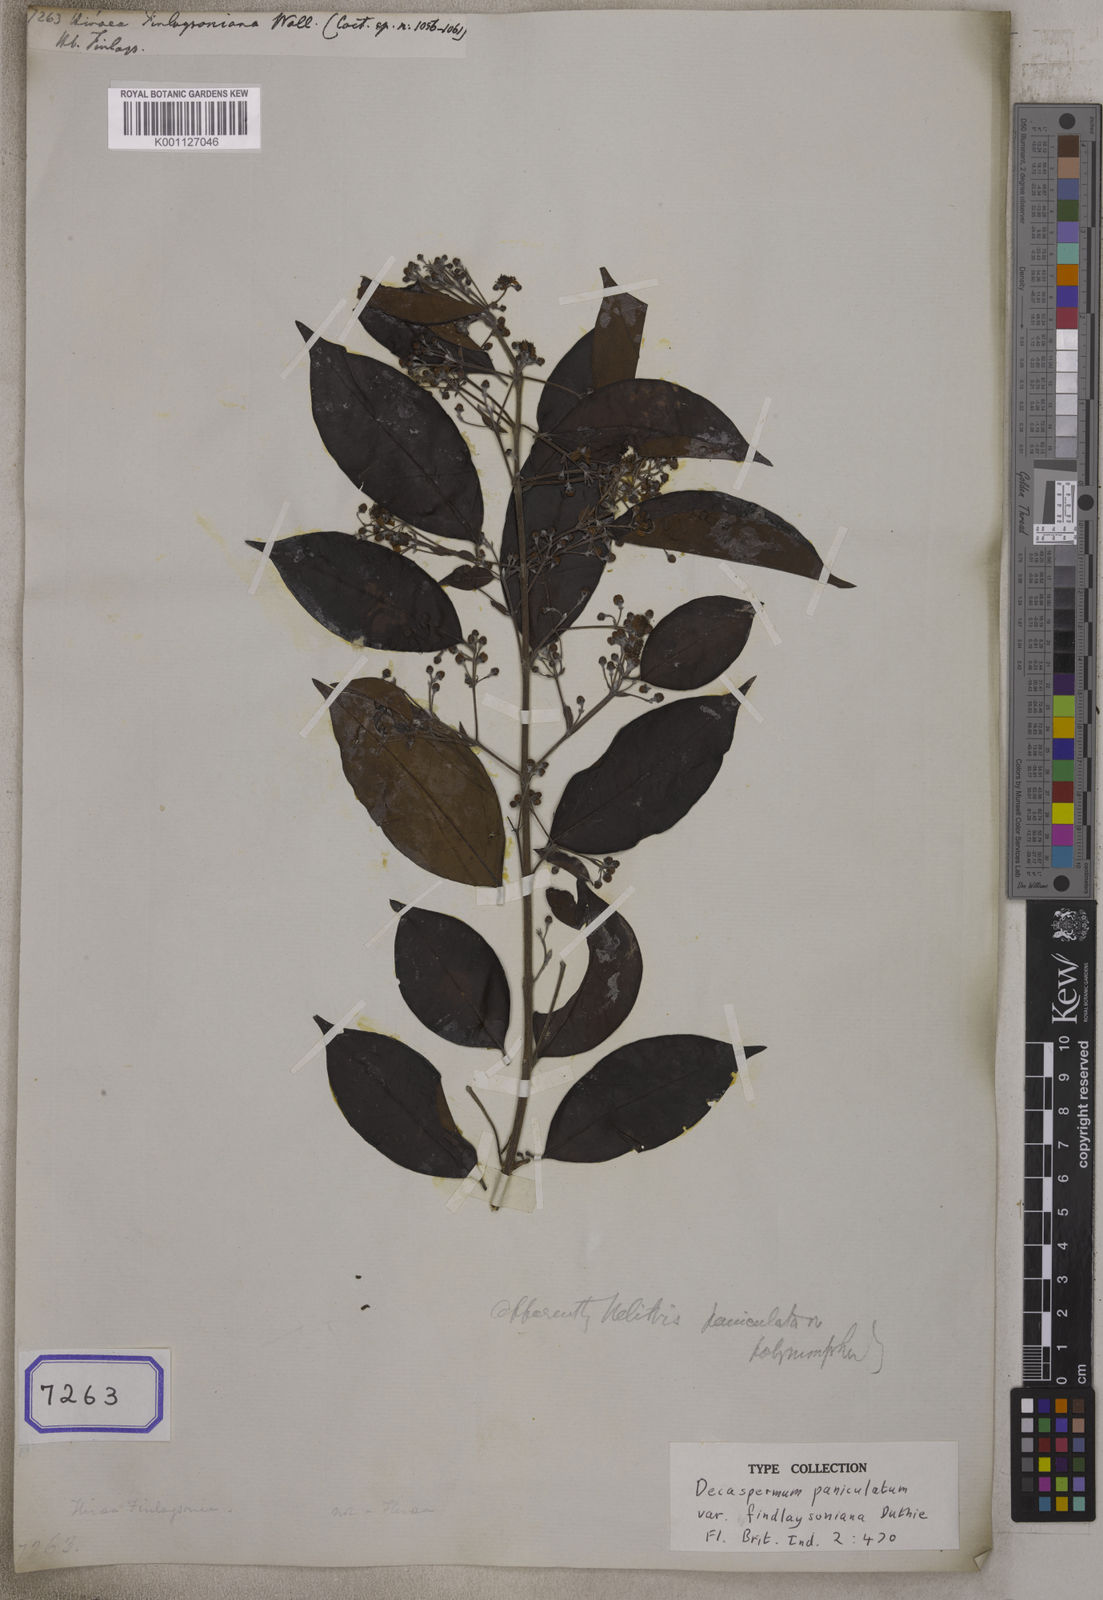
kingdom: Plantae
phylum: Tracheophyta
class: Magnoliopsida
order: Malpighiales
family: Malpighiaceae
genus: Hiraea
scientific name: Hiraea finlaysoniana
